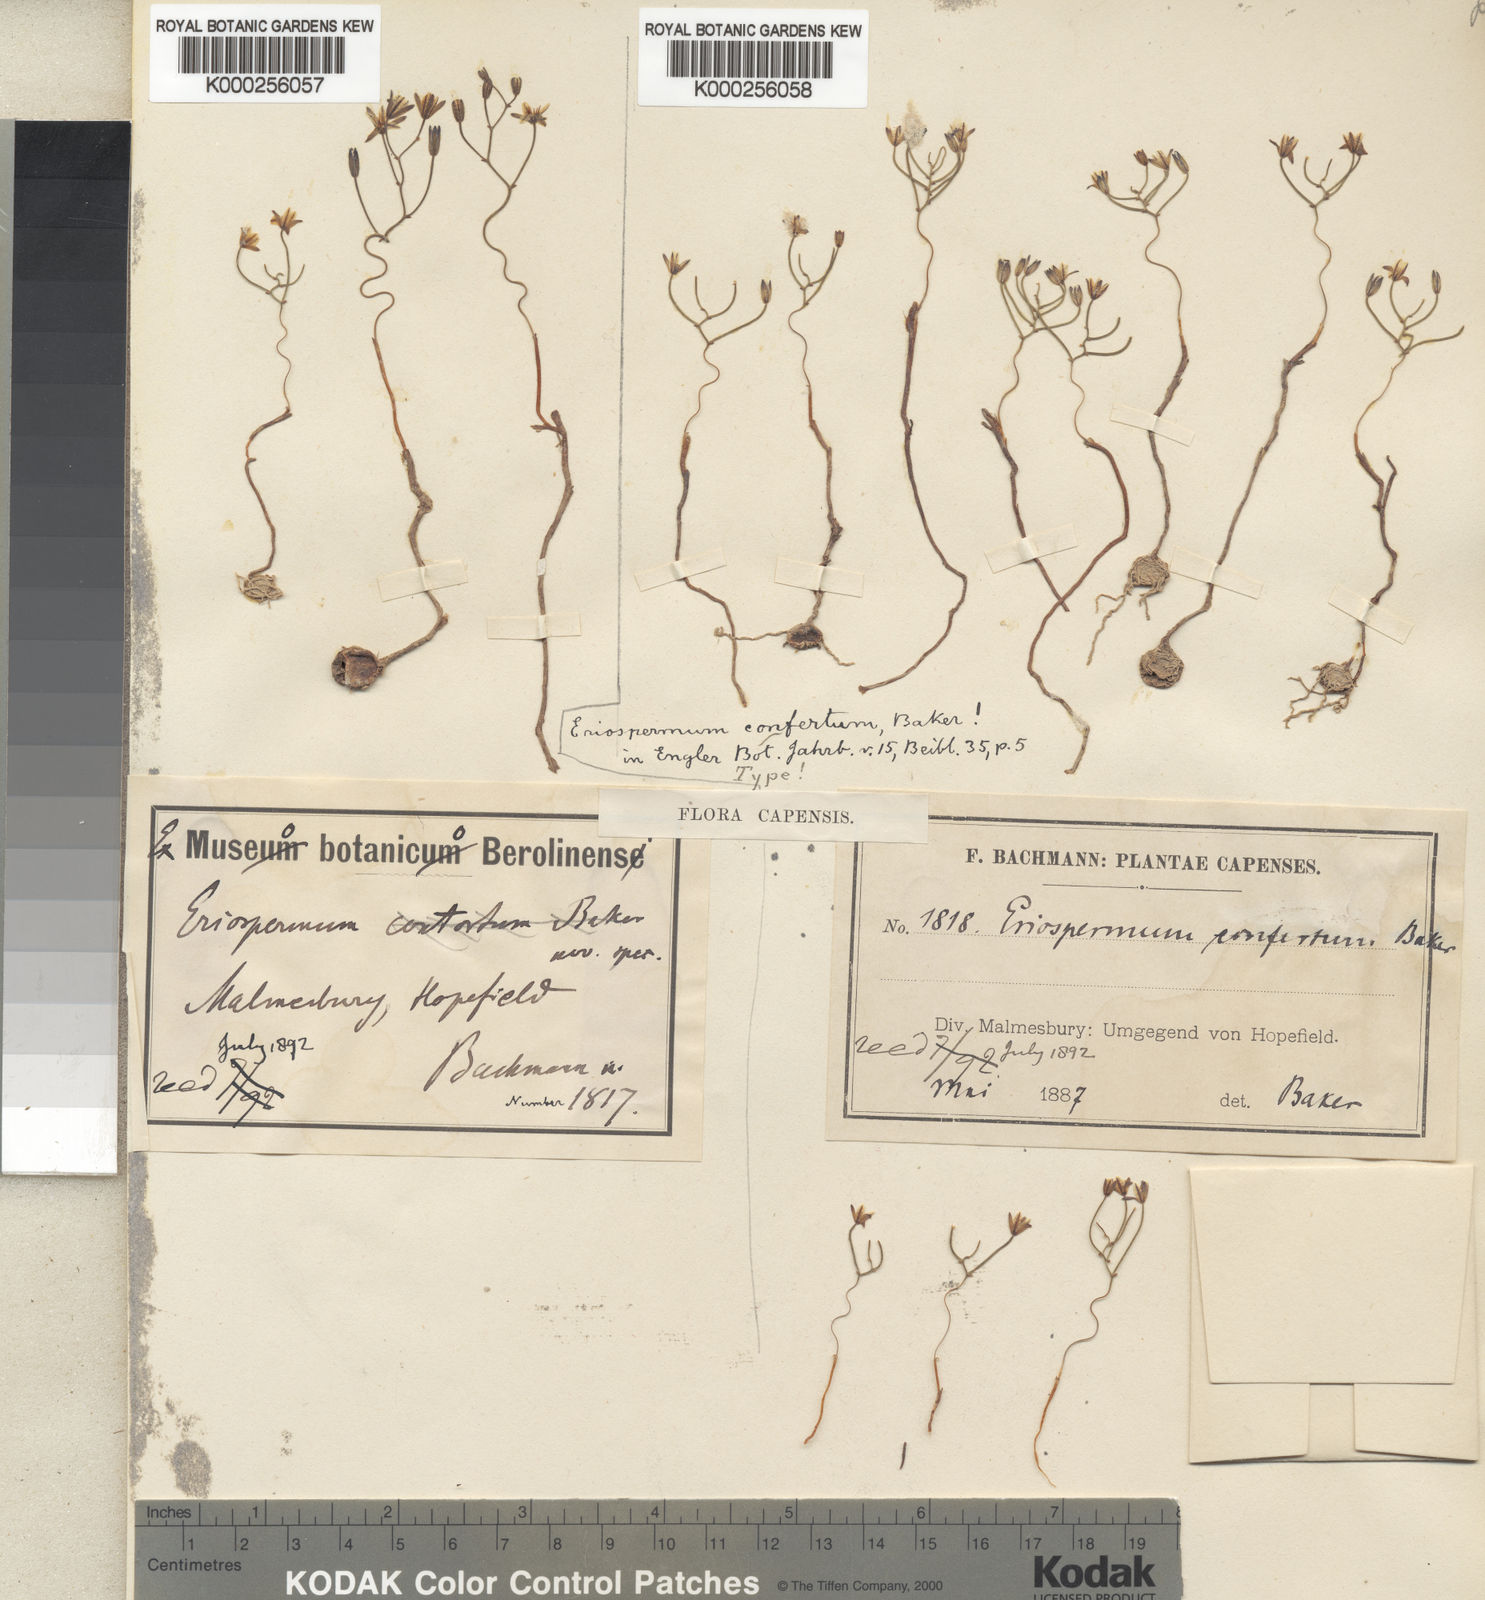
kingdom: Plantae
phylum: Tracheophyta
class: Liliopsida
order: Asparagales
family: Asparagaceae
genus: Eriospermum
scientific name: Eriospermum spirale
